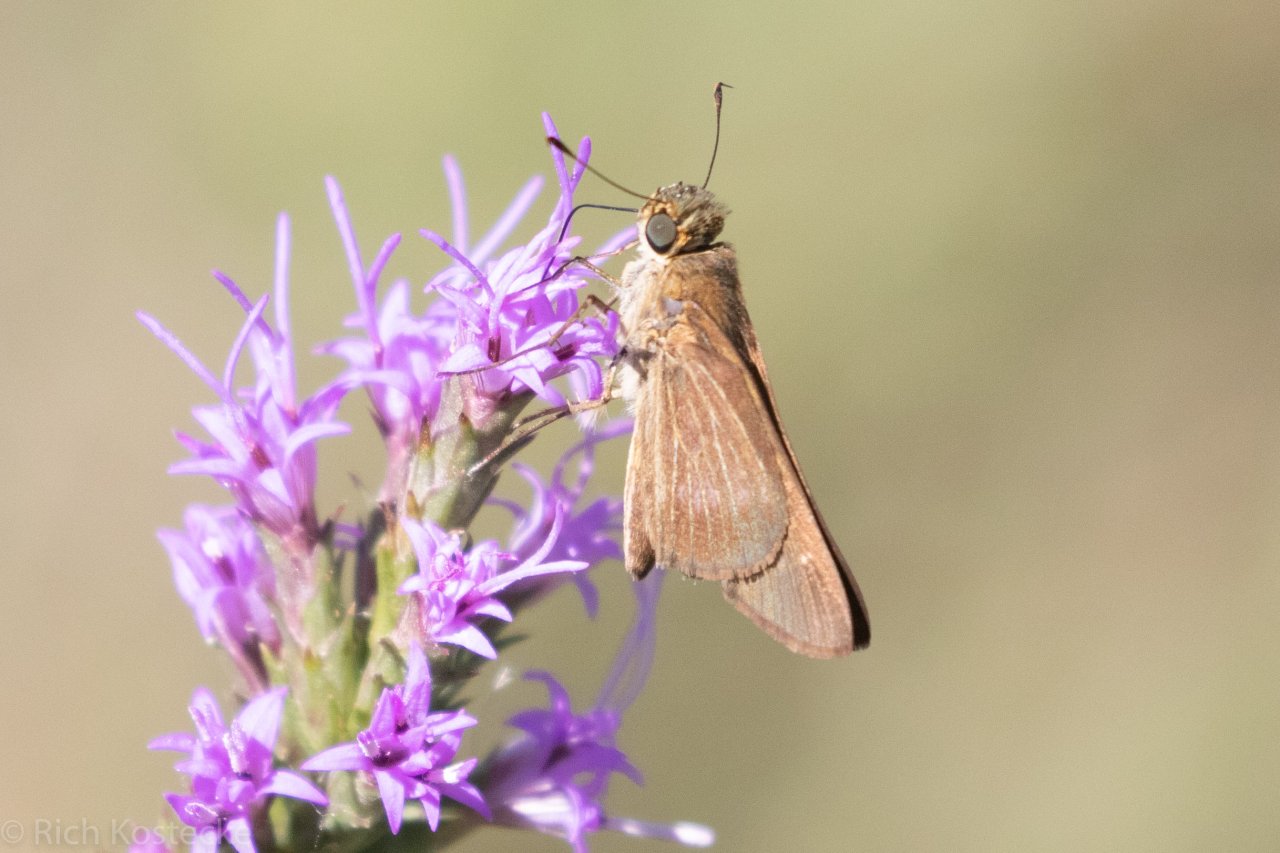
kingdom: Animalia
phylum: Arthropoda
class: Insecta
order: Lepidoptera
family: Hesperiidae
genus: Panoquina
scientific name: Panoquina ocola
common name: Ocola Skipper
